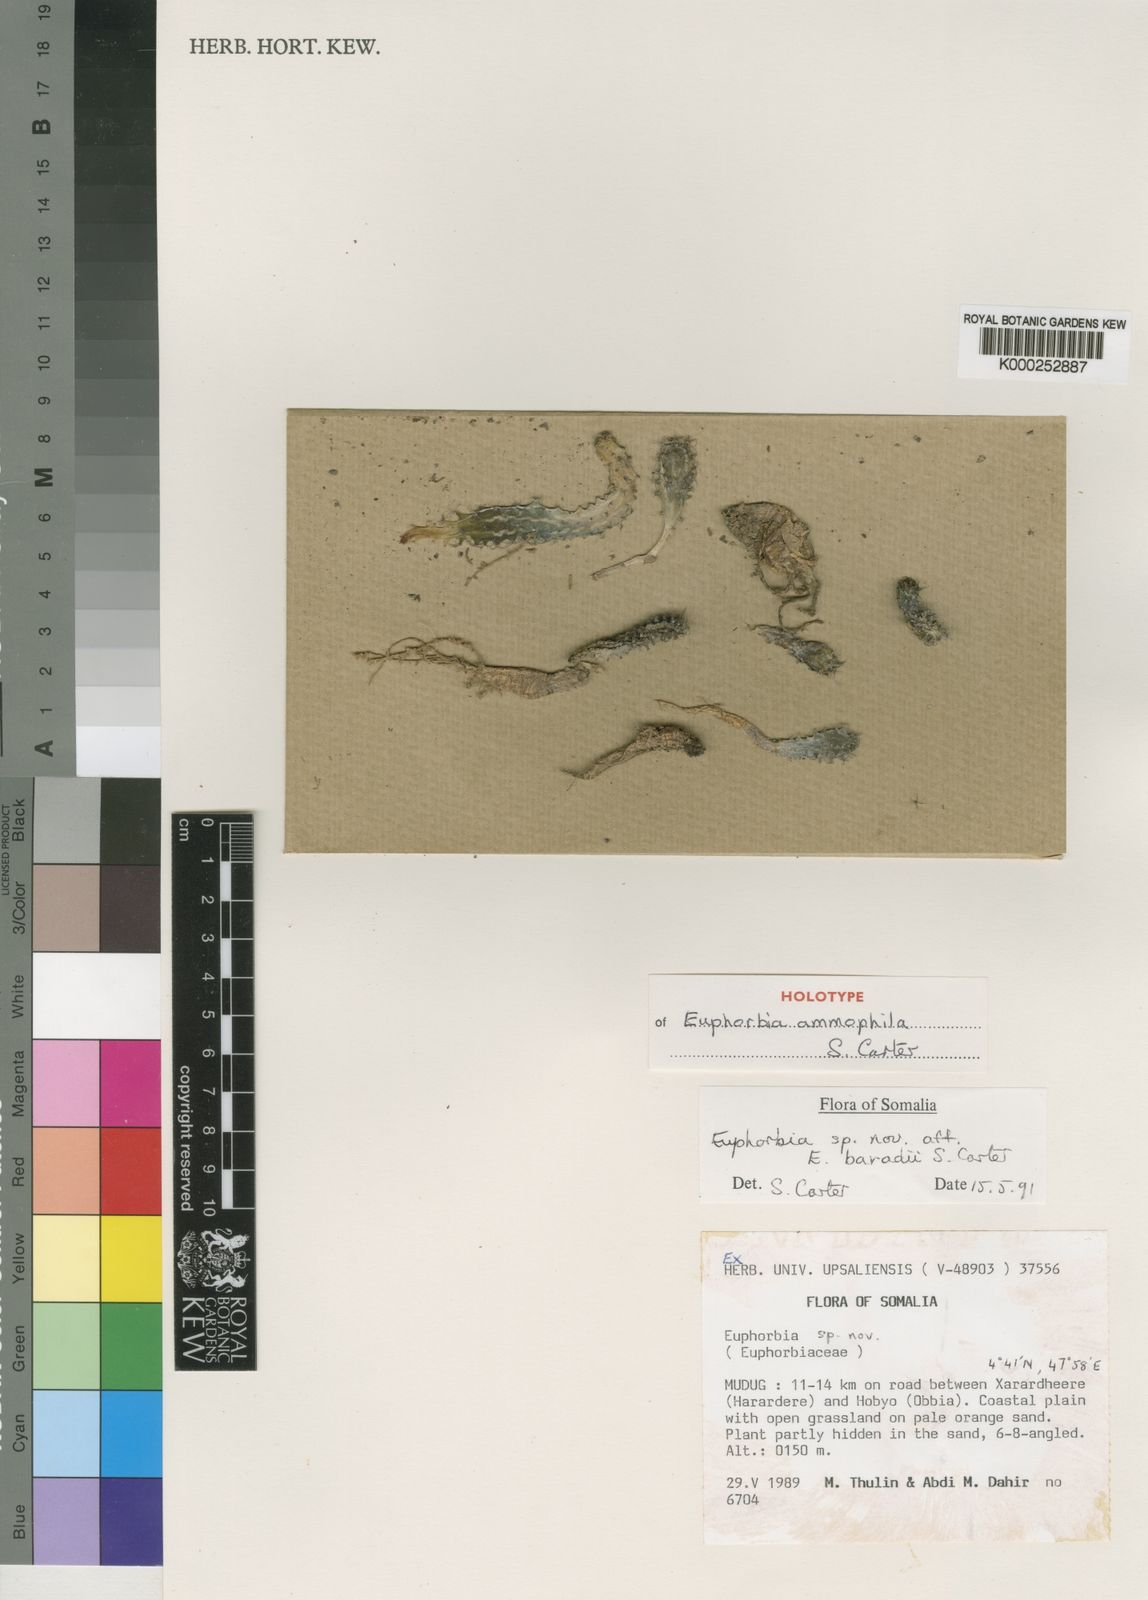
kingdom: Plantae
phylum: Tracheophyta
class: Magnoliopsida
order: Malpighiales
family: Euphorbiaceae
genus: Euphorbia
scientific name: Euphorbia ammophila
